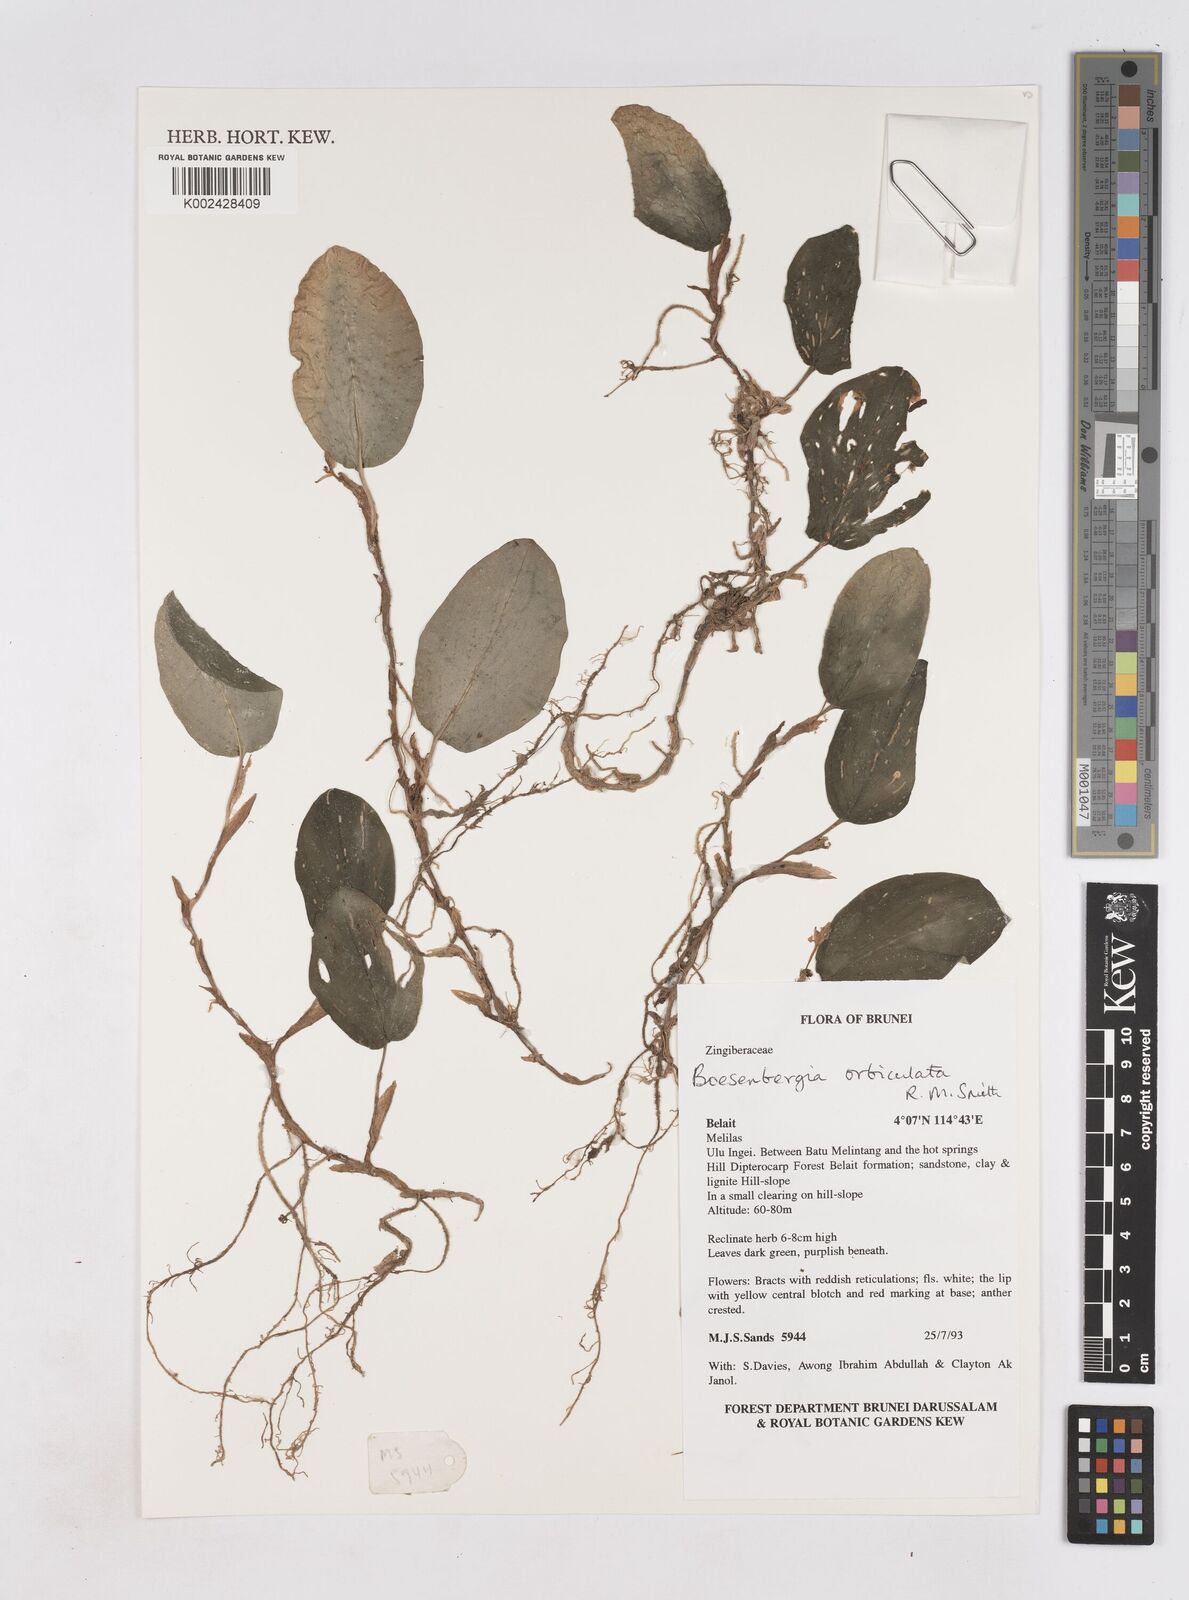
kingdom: Plantae
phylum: Tracheophyta
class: Liliopsida
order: Zingiberales
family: Zingiberaceae
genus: Boesenbergia
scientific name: Boesenbergia orbiculata
